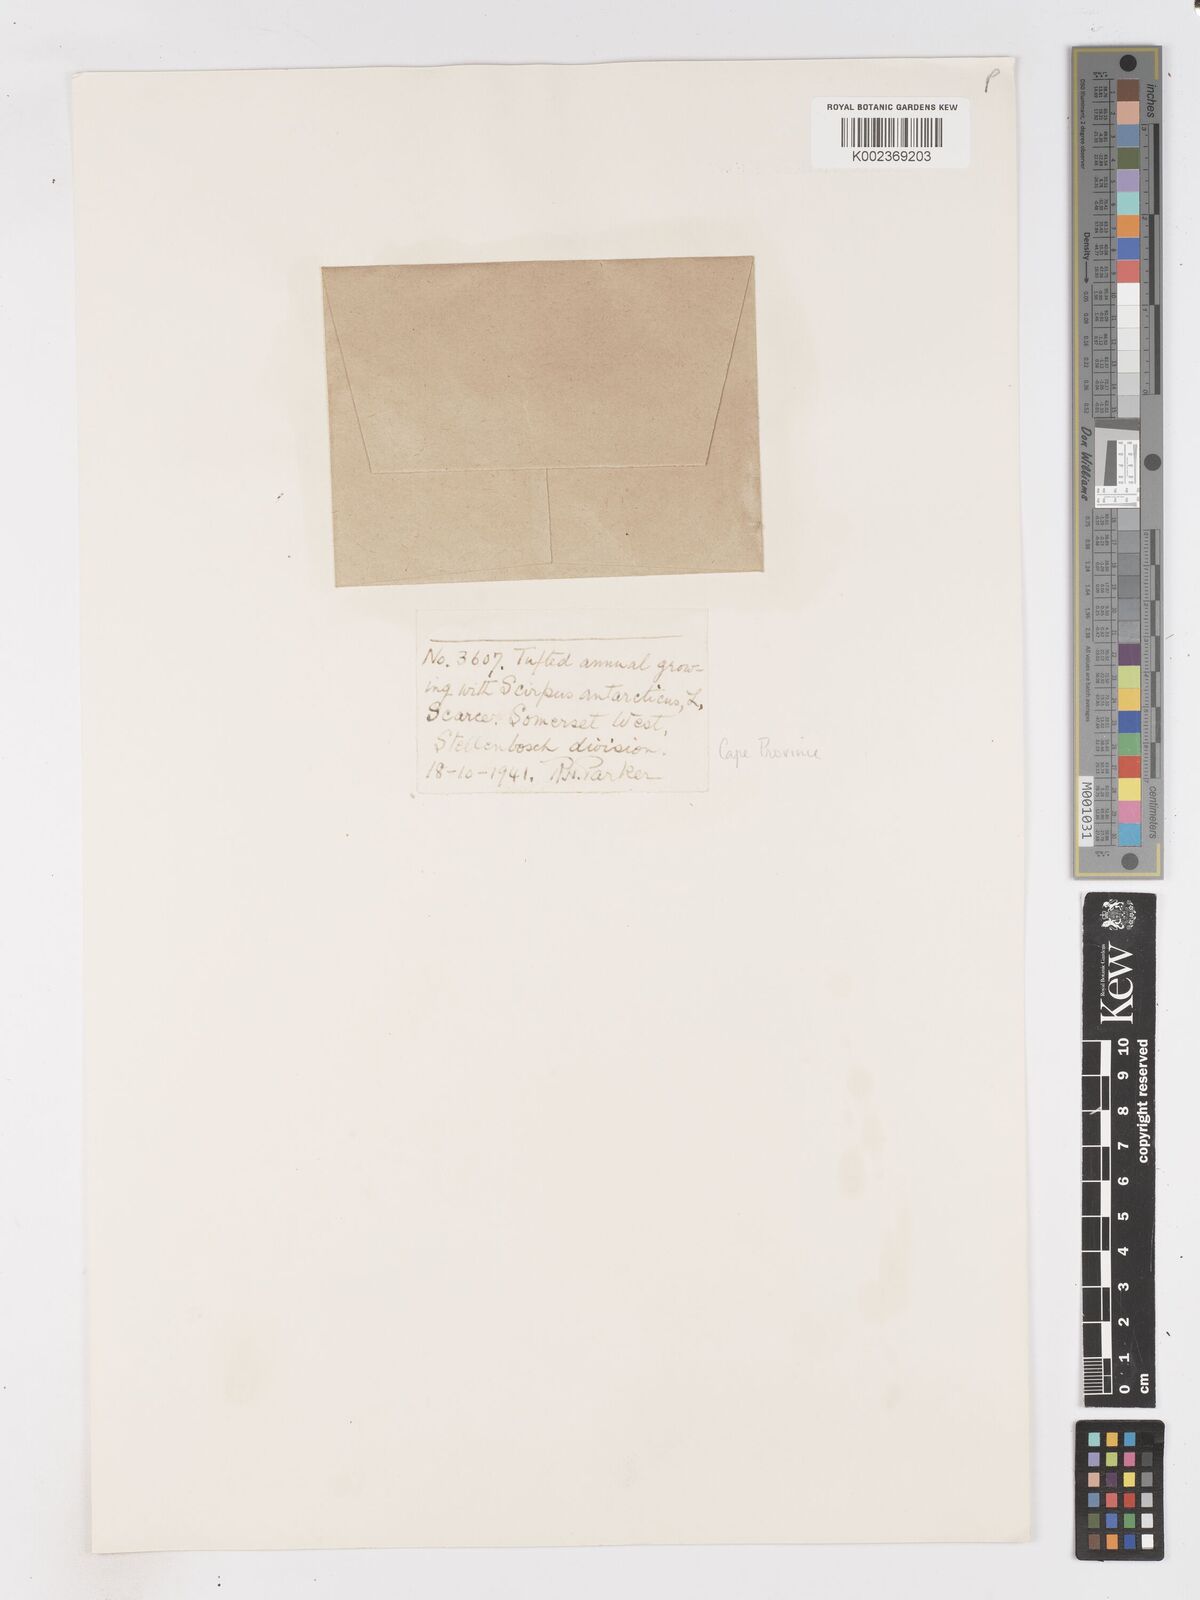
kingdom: Plantae
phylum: Tracheophyta
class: Liliopsida
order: Poales
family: Cyperaceae
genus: Isolepis
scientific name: Isolepis brevicaulis
